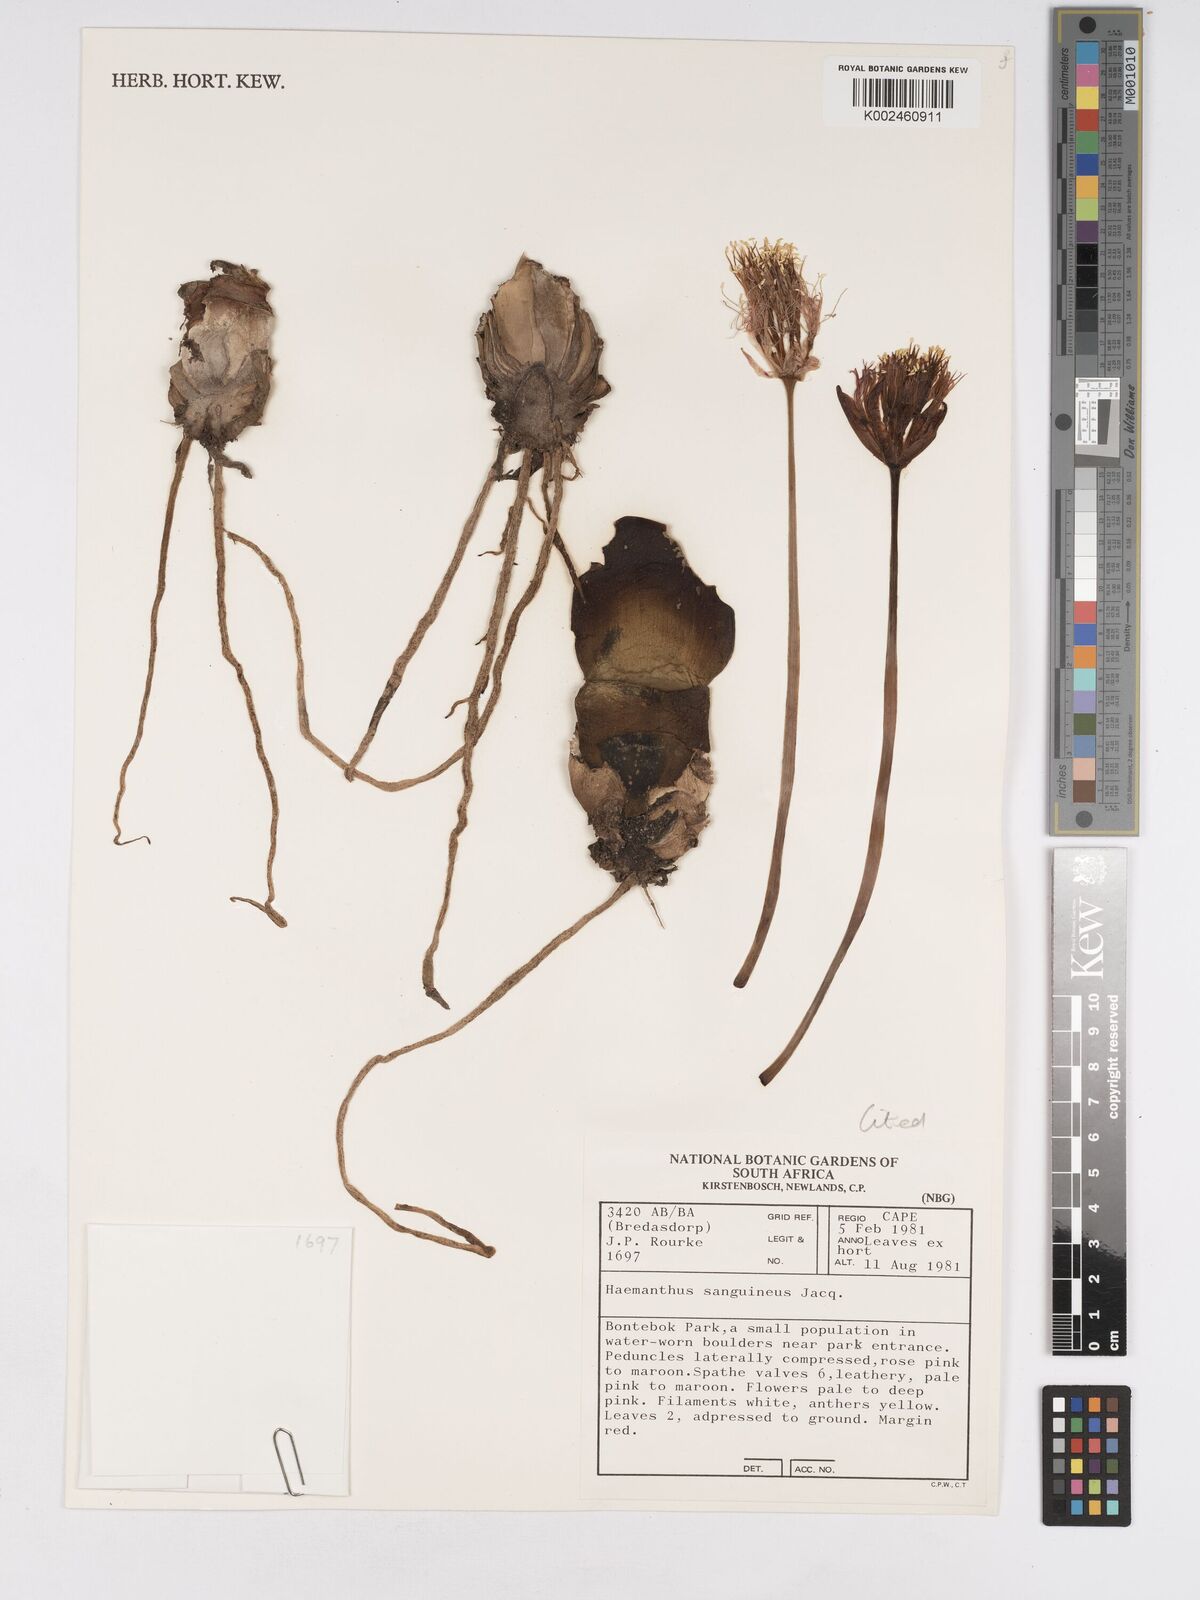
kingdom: Plantae
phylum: Tracheophyta
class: Liliopsida
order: Asparagales
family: Amaryllidaceae
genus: Haemanthus
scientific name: Haemanthus sanguineus
